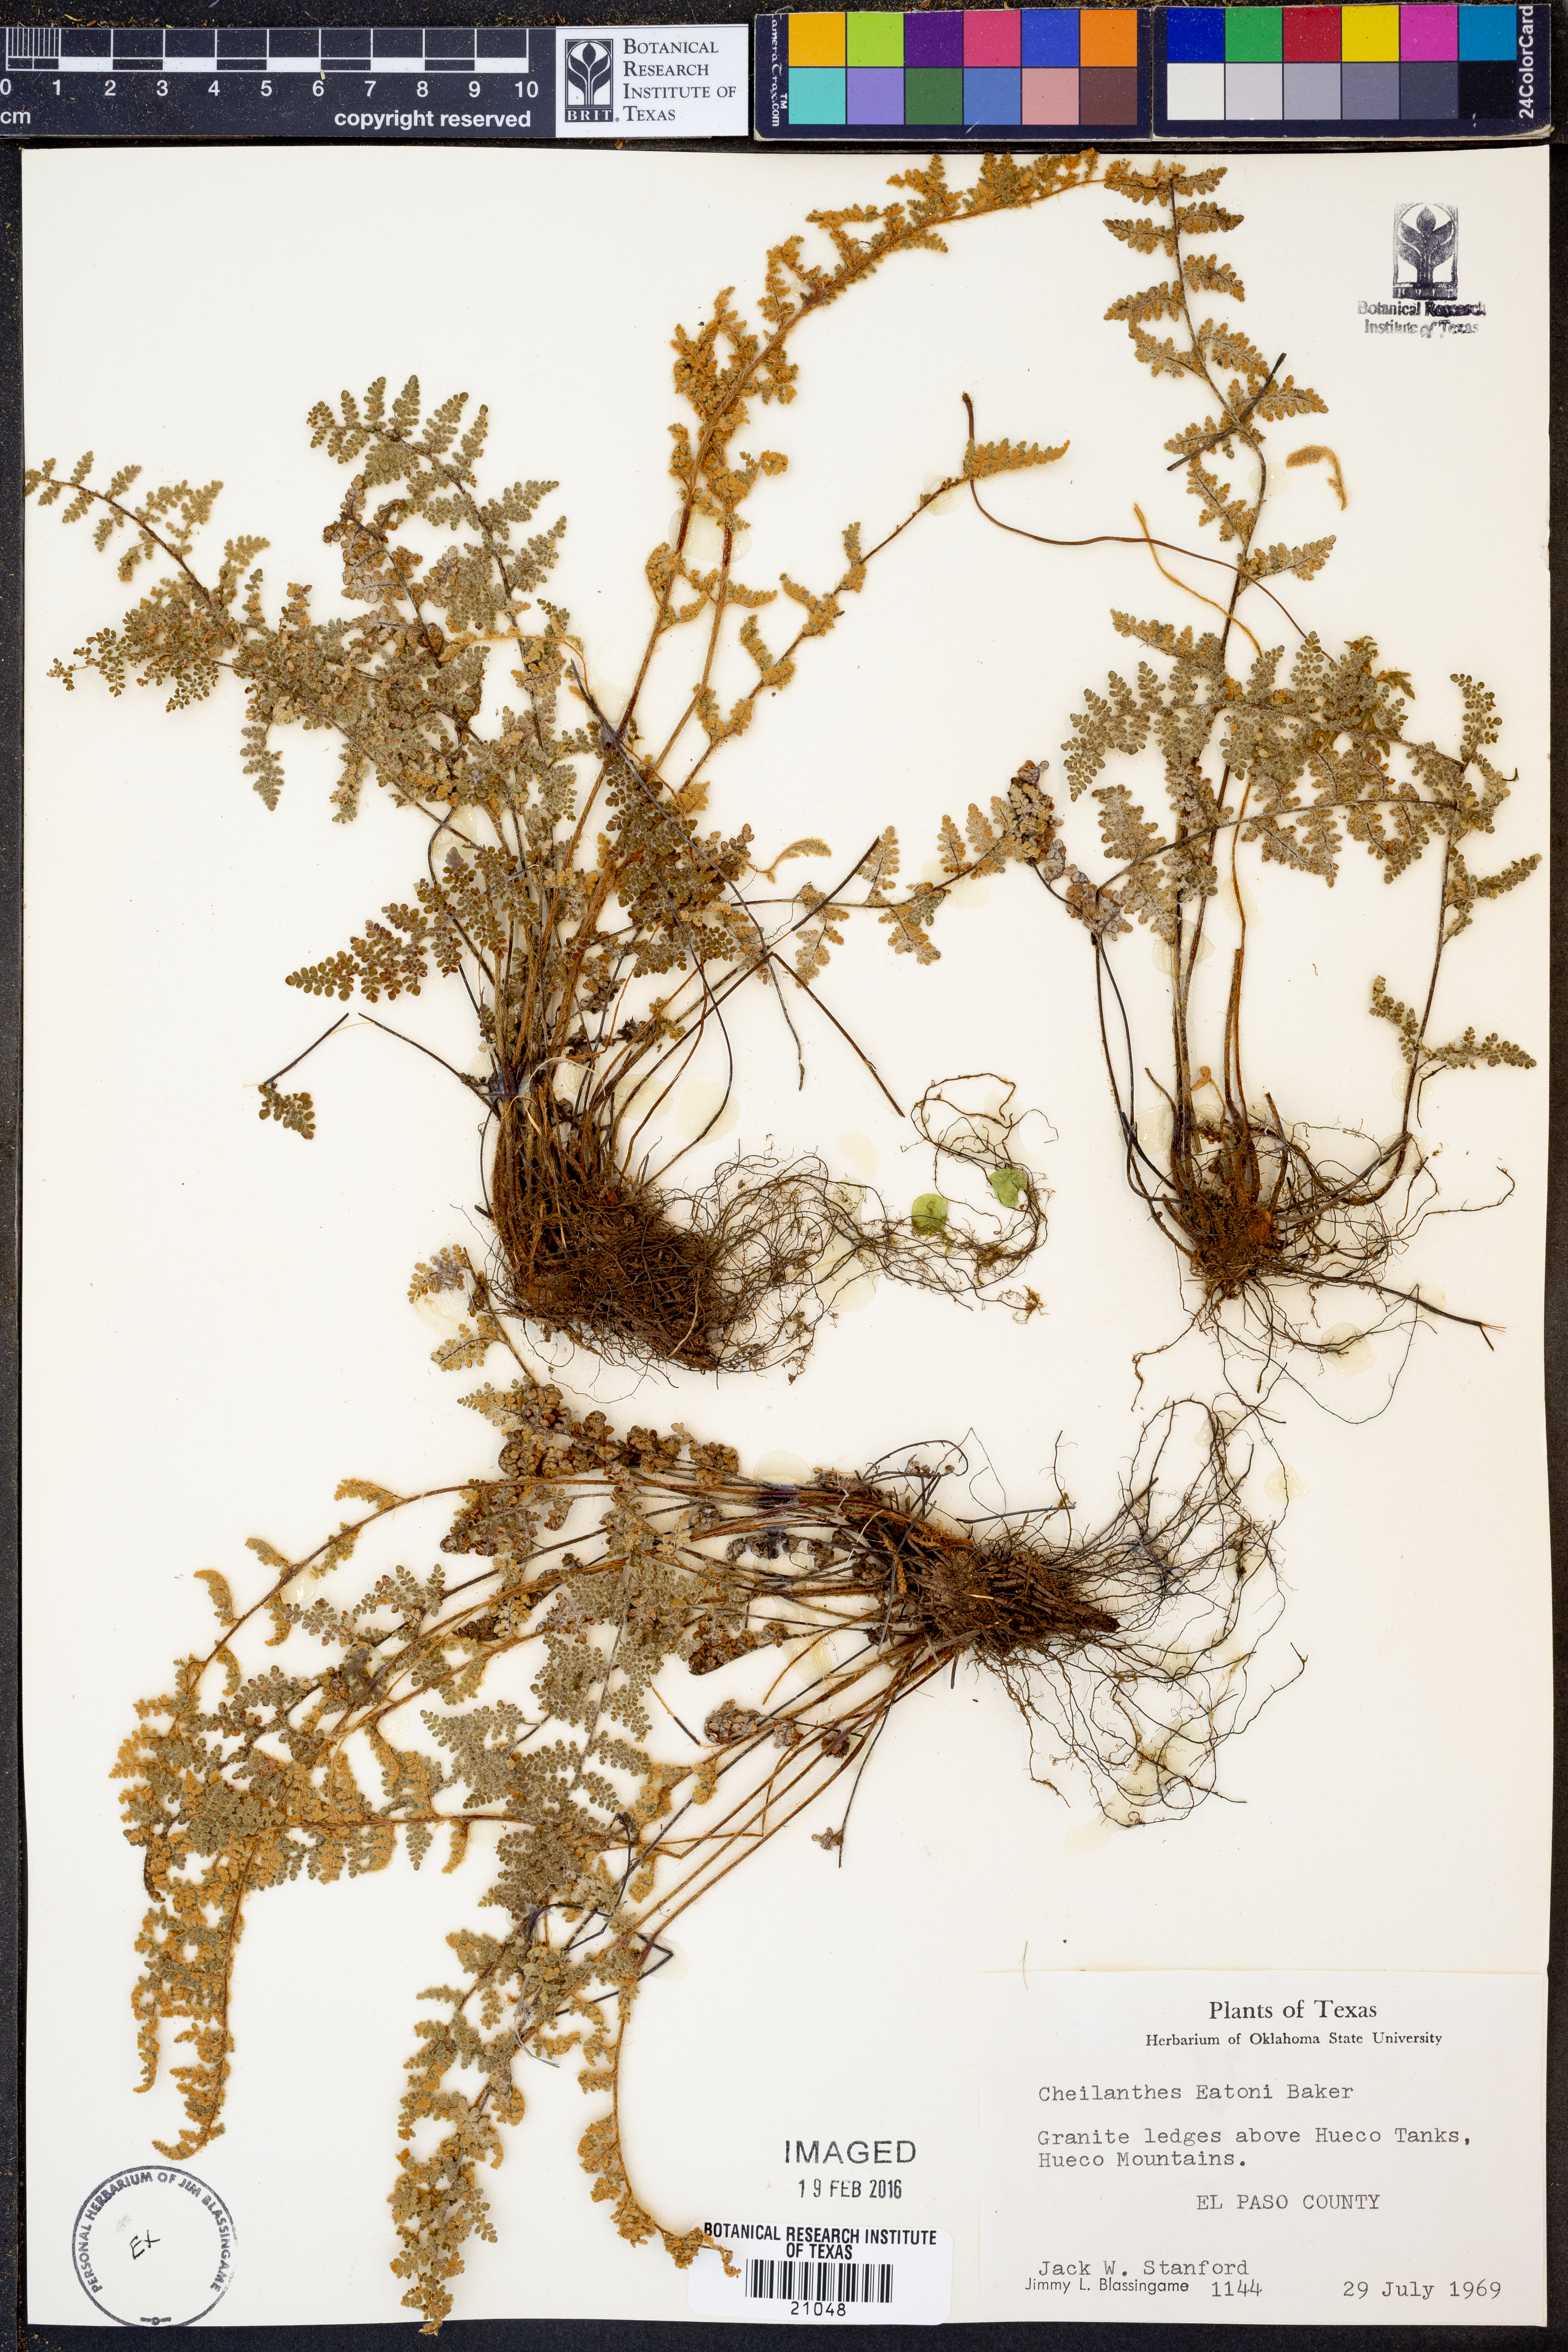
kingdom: Plantae
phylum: Tracheophyta
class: Polypodiopsida
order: Polypodiales
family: Pteridaceae
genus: Myriopteris
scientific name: Myriopteris rufa
